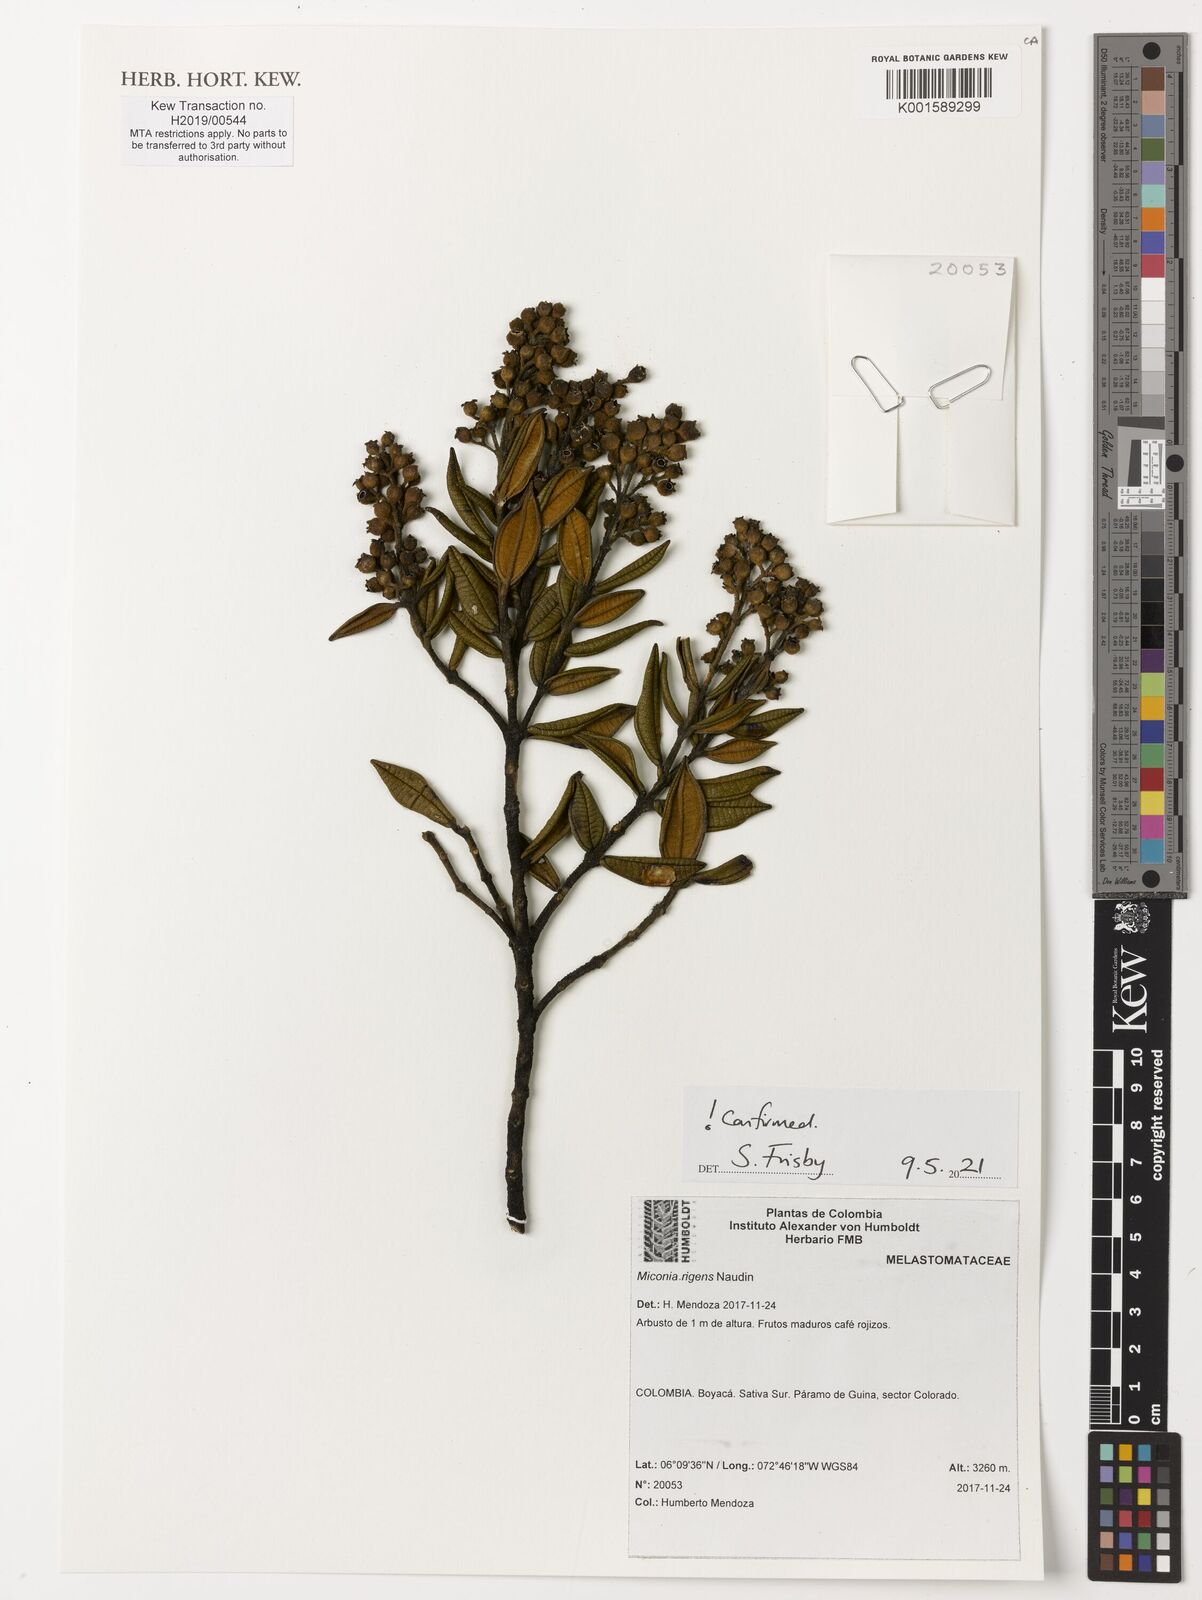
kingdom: Plantae
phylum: Tracheophyta
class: Magnoliopsida
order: Myrtales
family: Melastomataceae
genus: Miconia
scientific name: Miconia rigens
